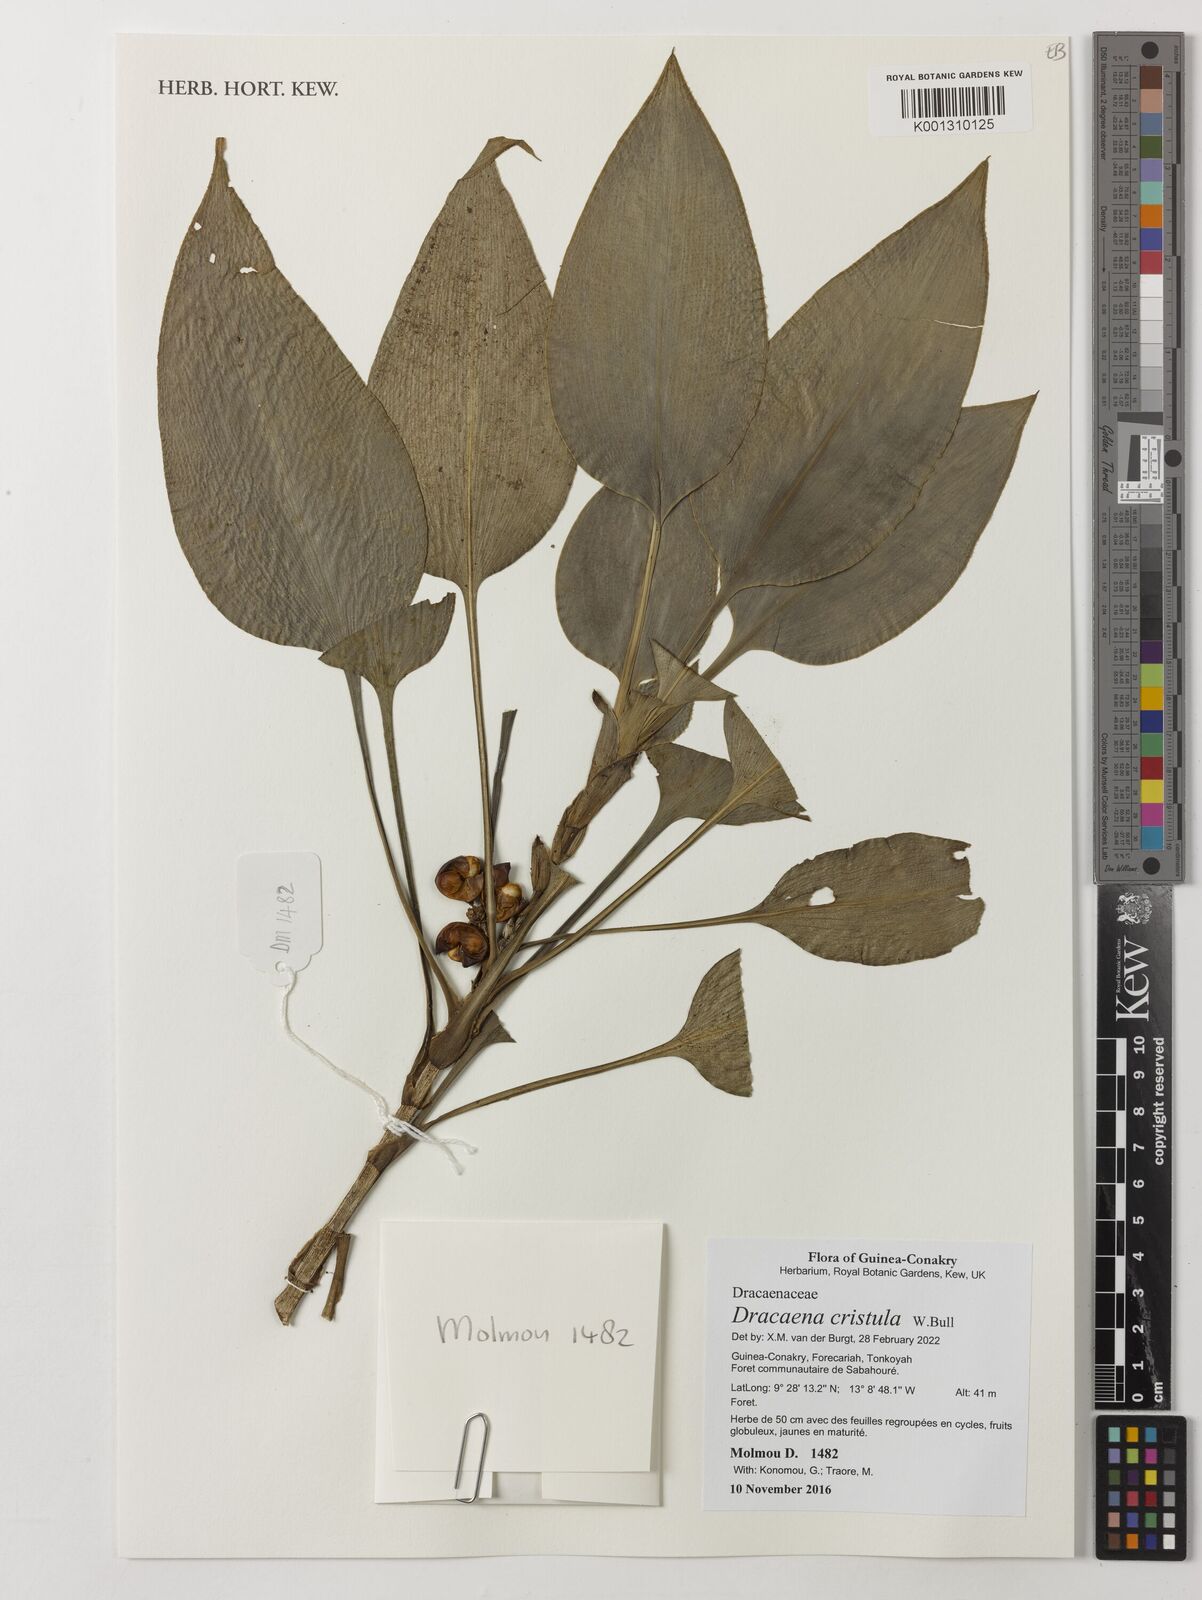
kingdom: Plantae
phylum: Tracheophyta
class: Liliopsida
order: Asparagales
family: Asparagaceae
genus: Dracaena
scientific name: Dracaena cristula
